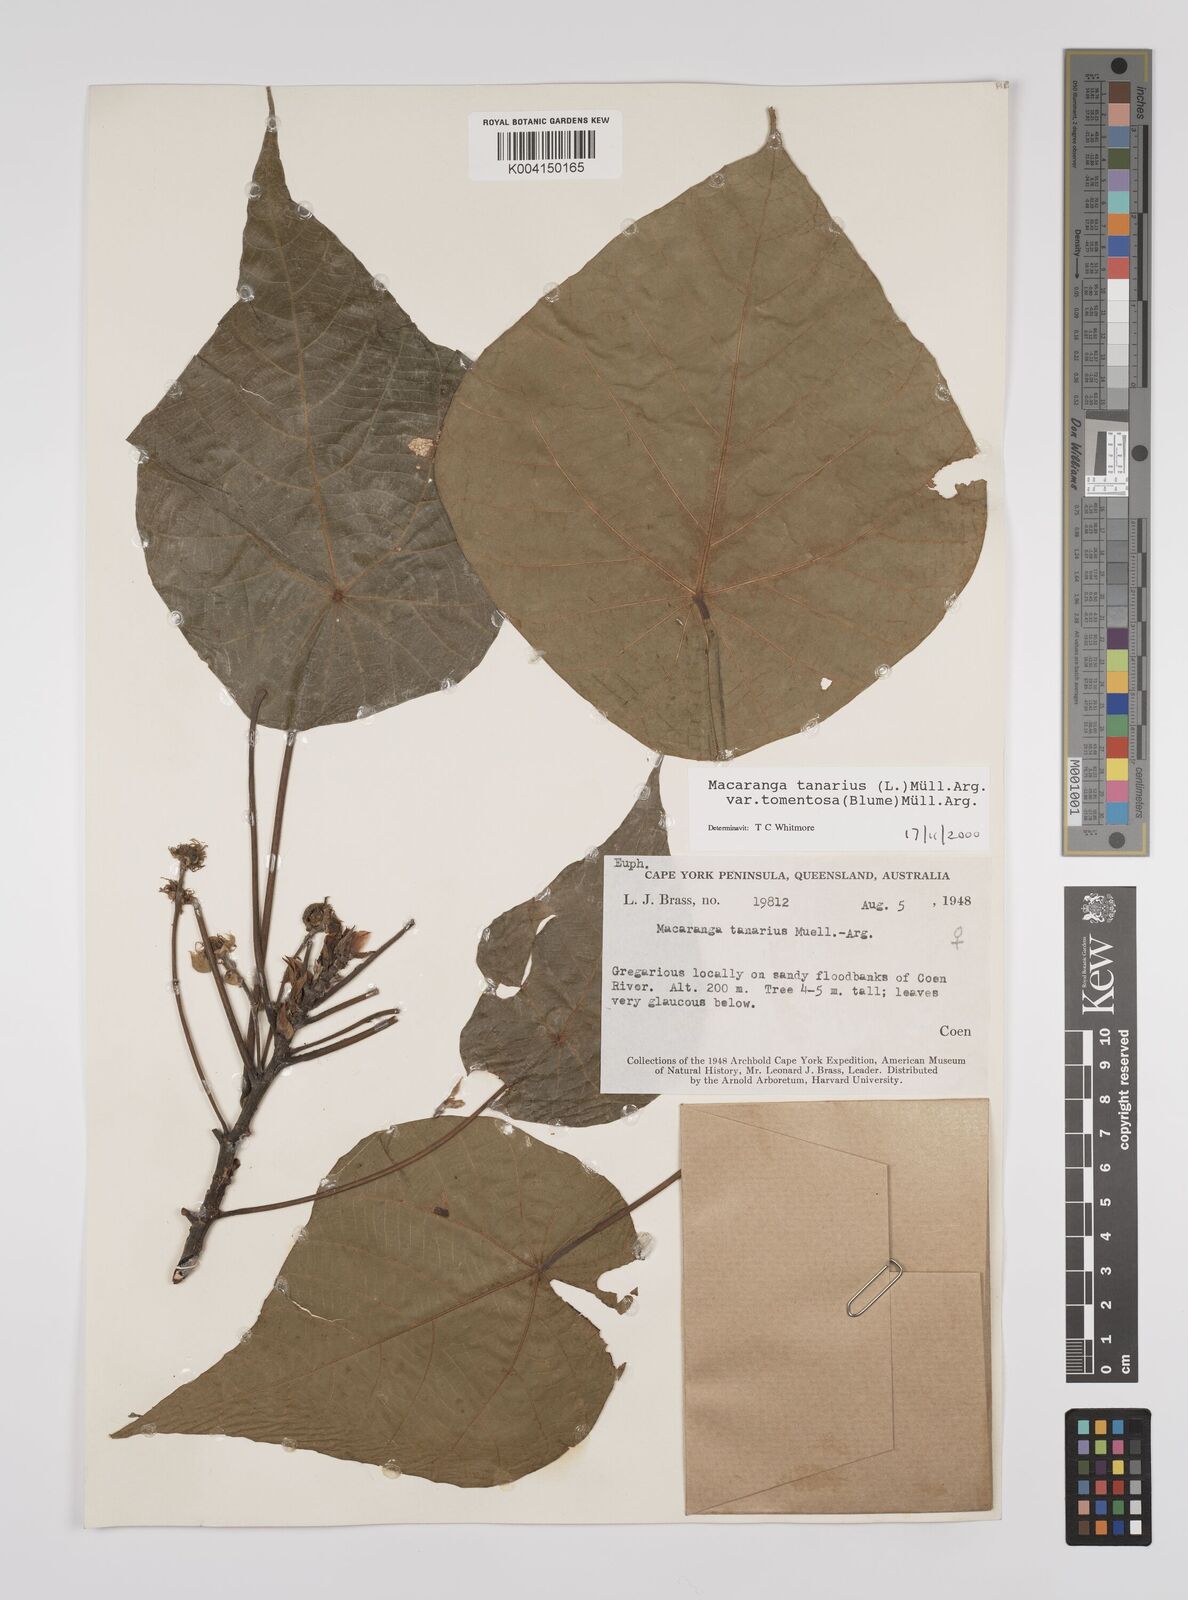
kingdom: Plantae
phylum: Tracheophyta
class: Magnoliopsida
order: Malpighiales
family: Euphorbiaceae
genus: Macaranga
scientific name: Macaranga tanarius
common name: Parasol leaf tree
